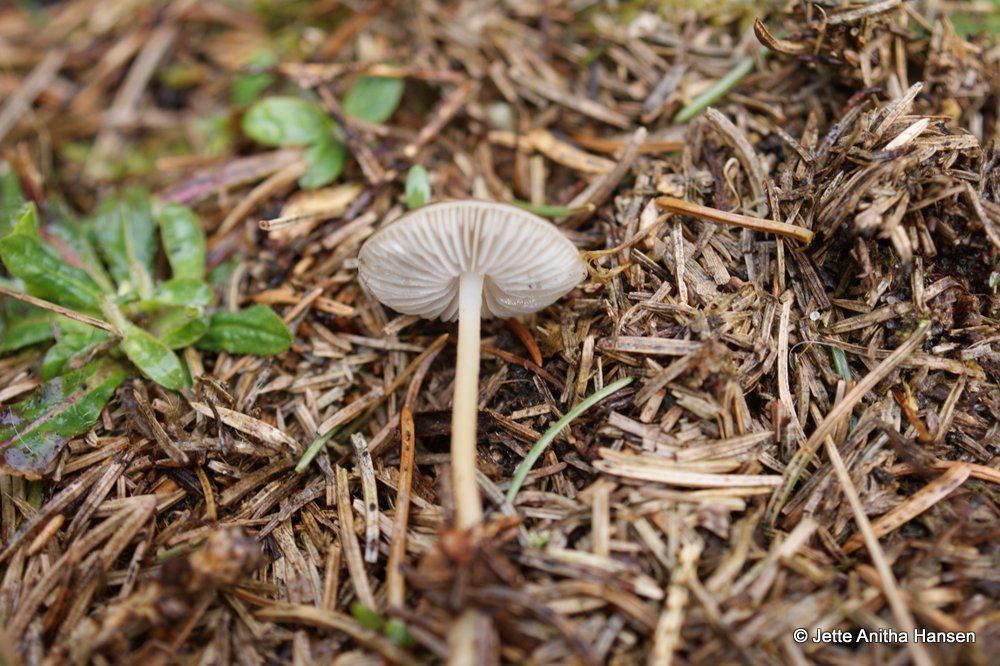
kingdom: Fungi
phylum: Basidiomycota
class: Agaricomycetes
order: Agaricales
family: Physalacriaceae
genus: Strobilurus
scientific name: Strobilurus esculentus
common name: gran-koglehat
